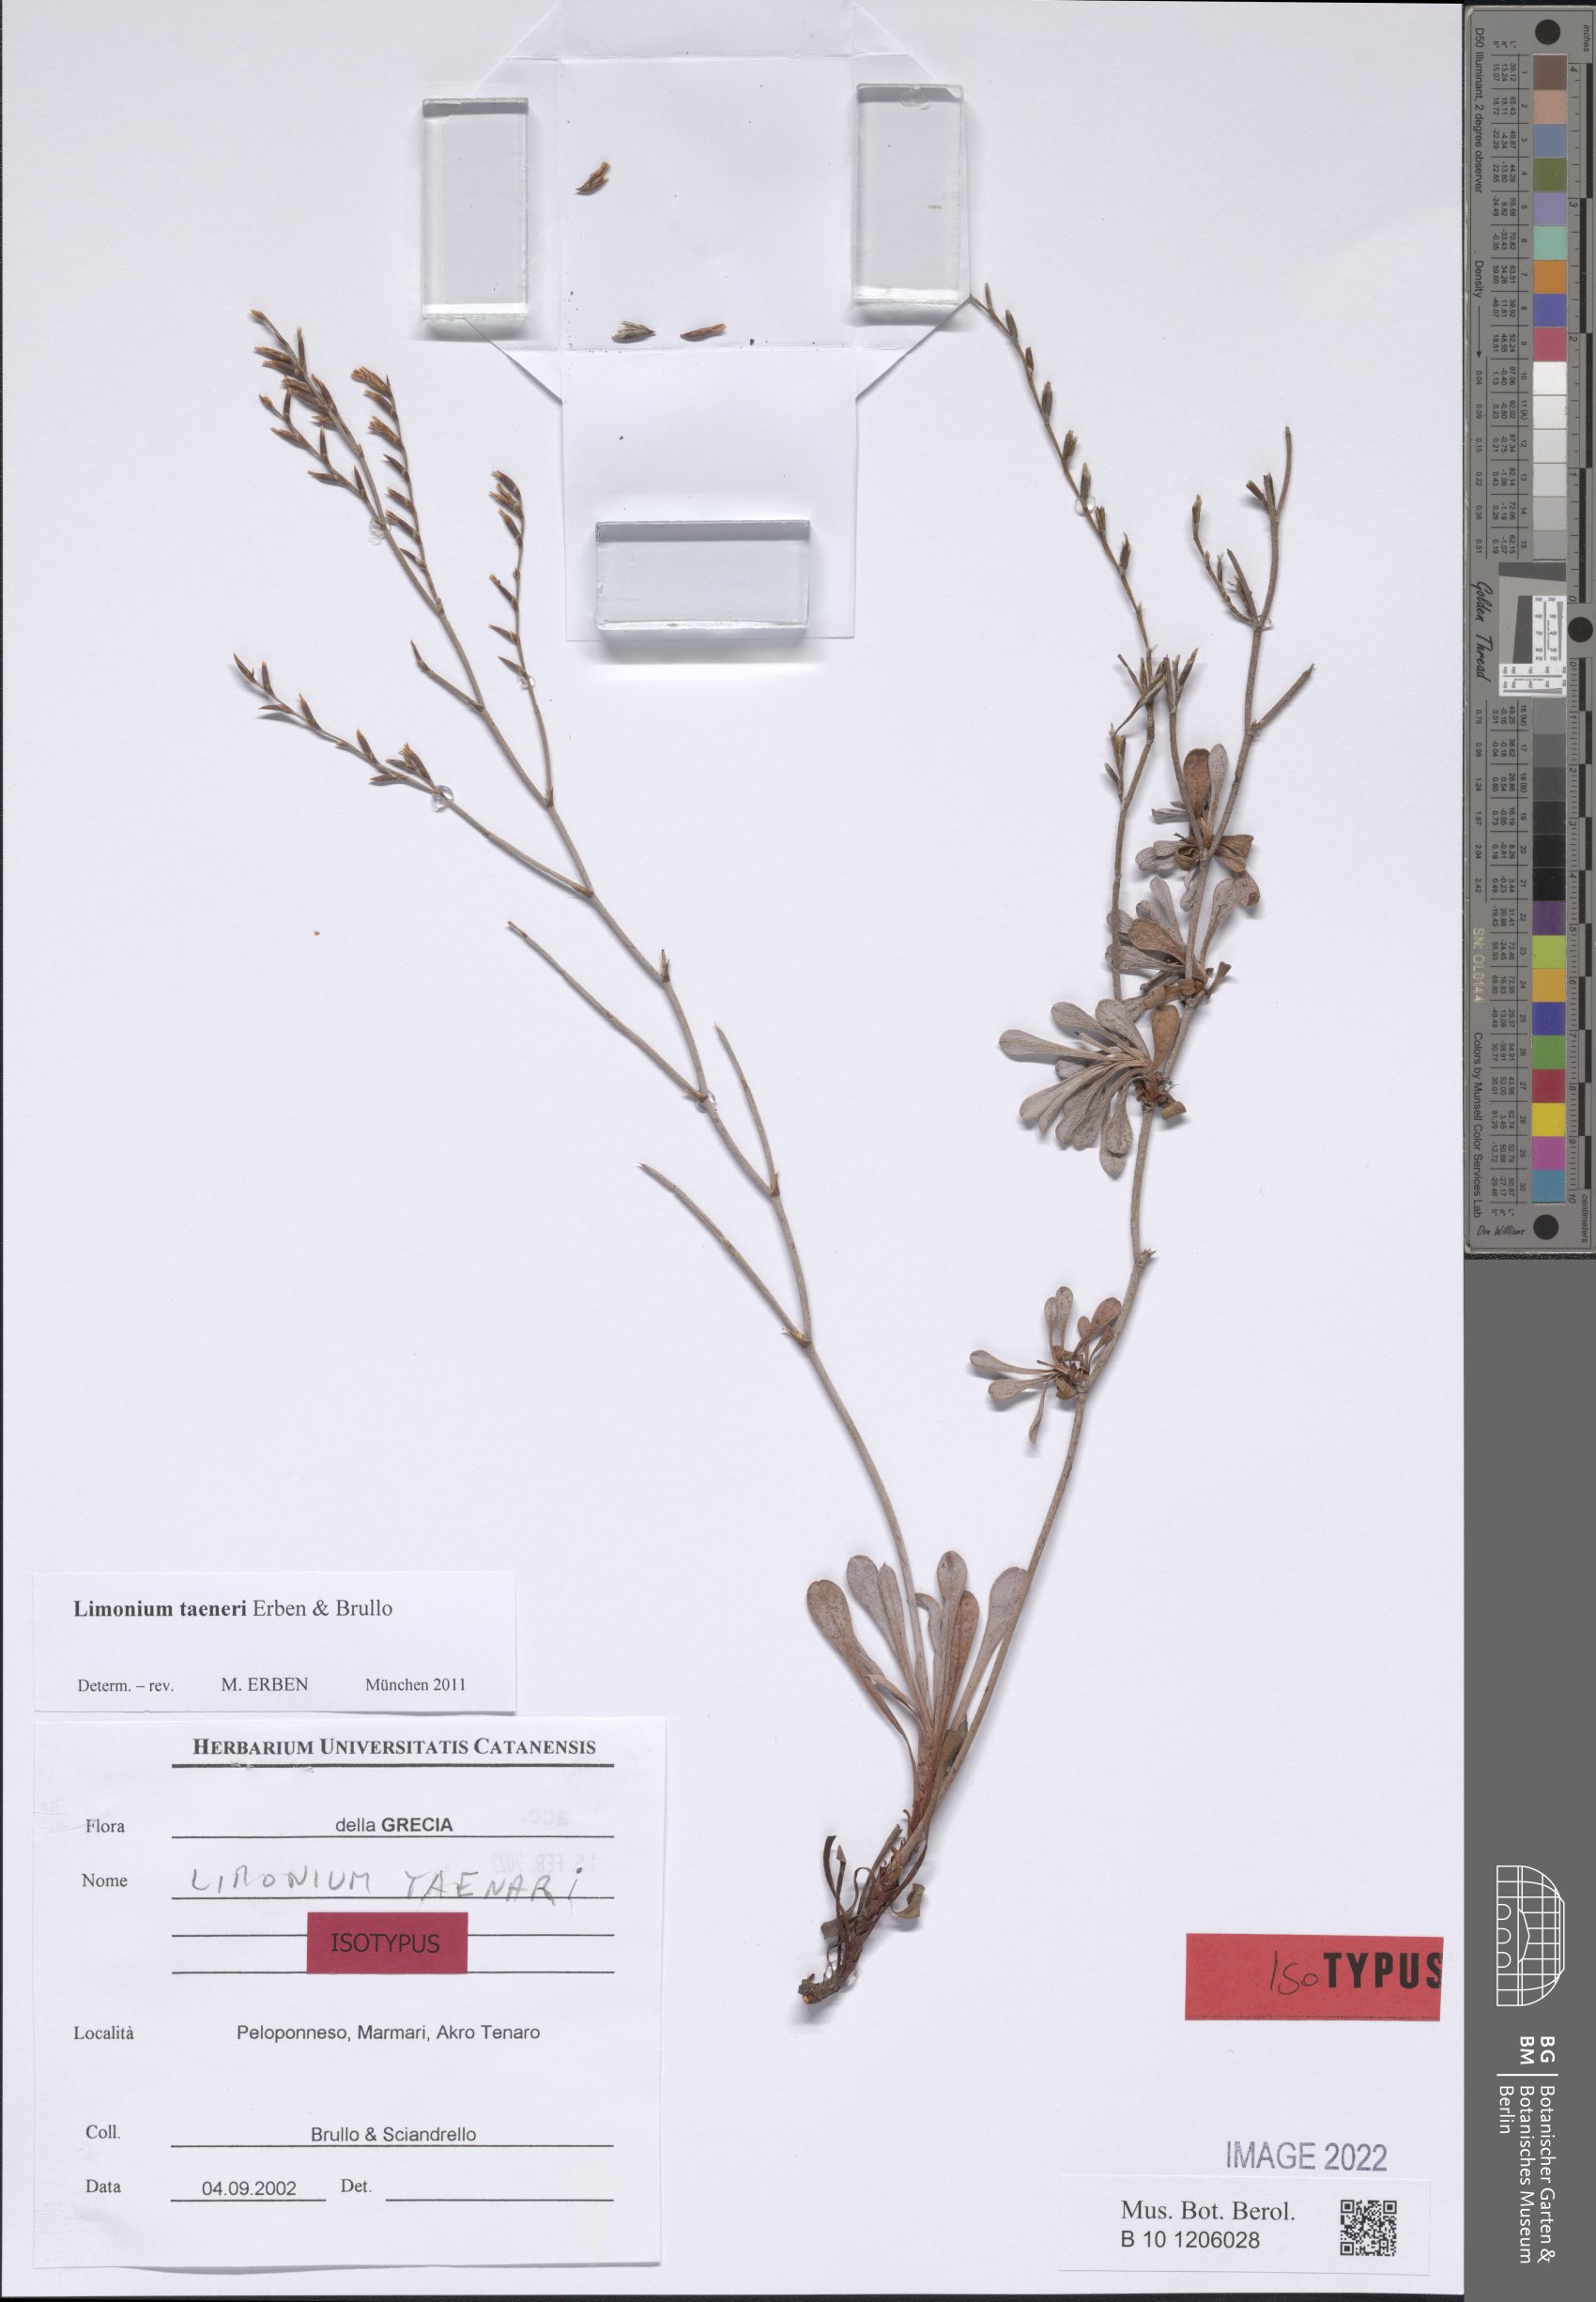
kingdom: Plantae
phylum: Tracheophyta
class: Magnoliopsida
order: Caryophyllales
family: Plumbaginaceae
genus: Limonium
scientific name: Limonium taenari
